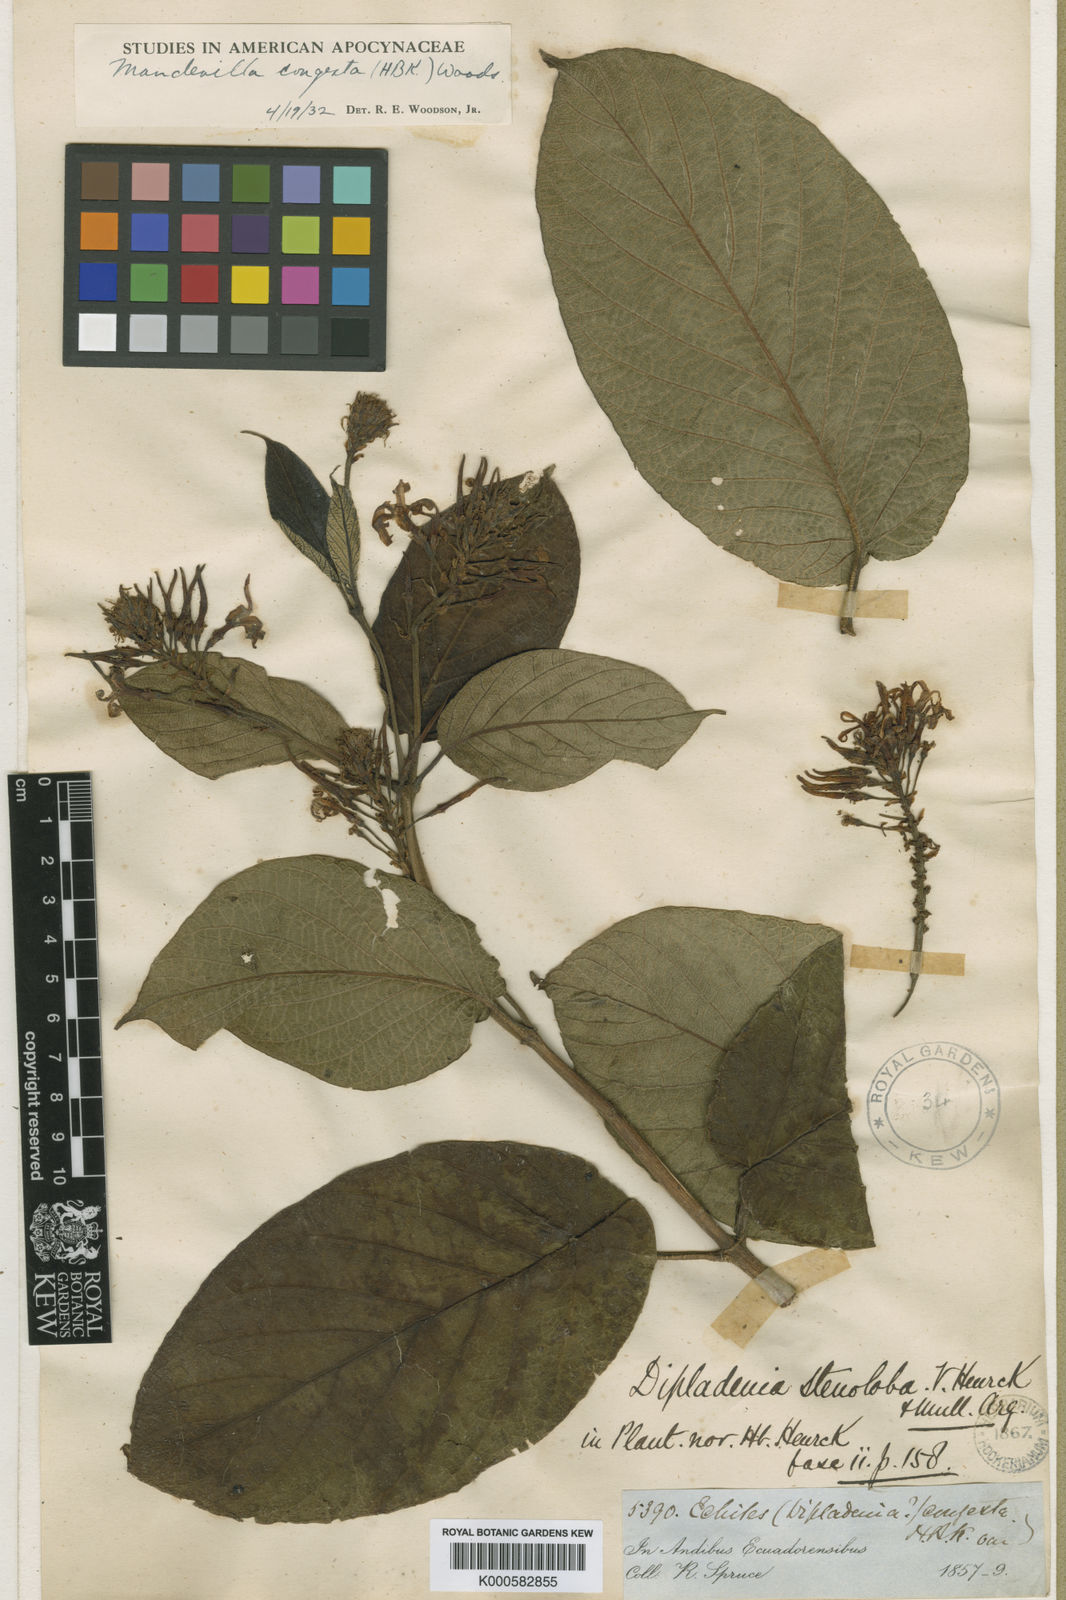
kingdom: Plantae
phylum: Tracheophyta
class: Magnoliopsida
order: Gentianales
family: Apocynaceae
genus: Mandevilla
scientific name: Mandevilla congesta
